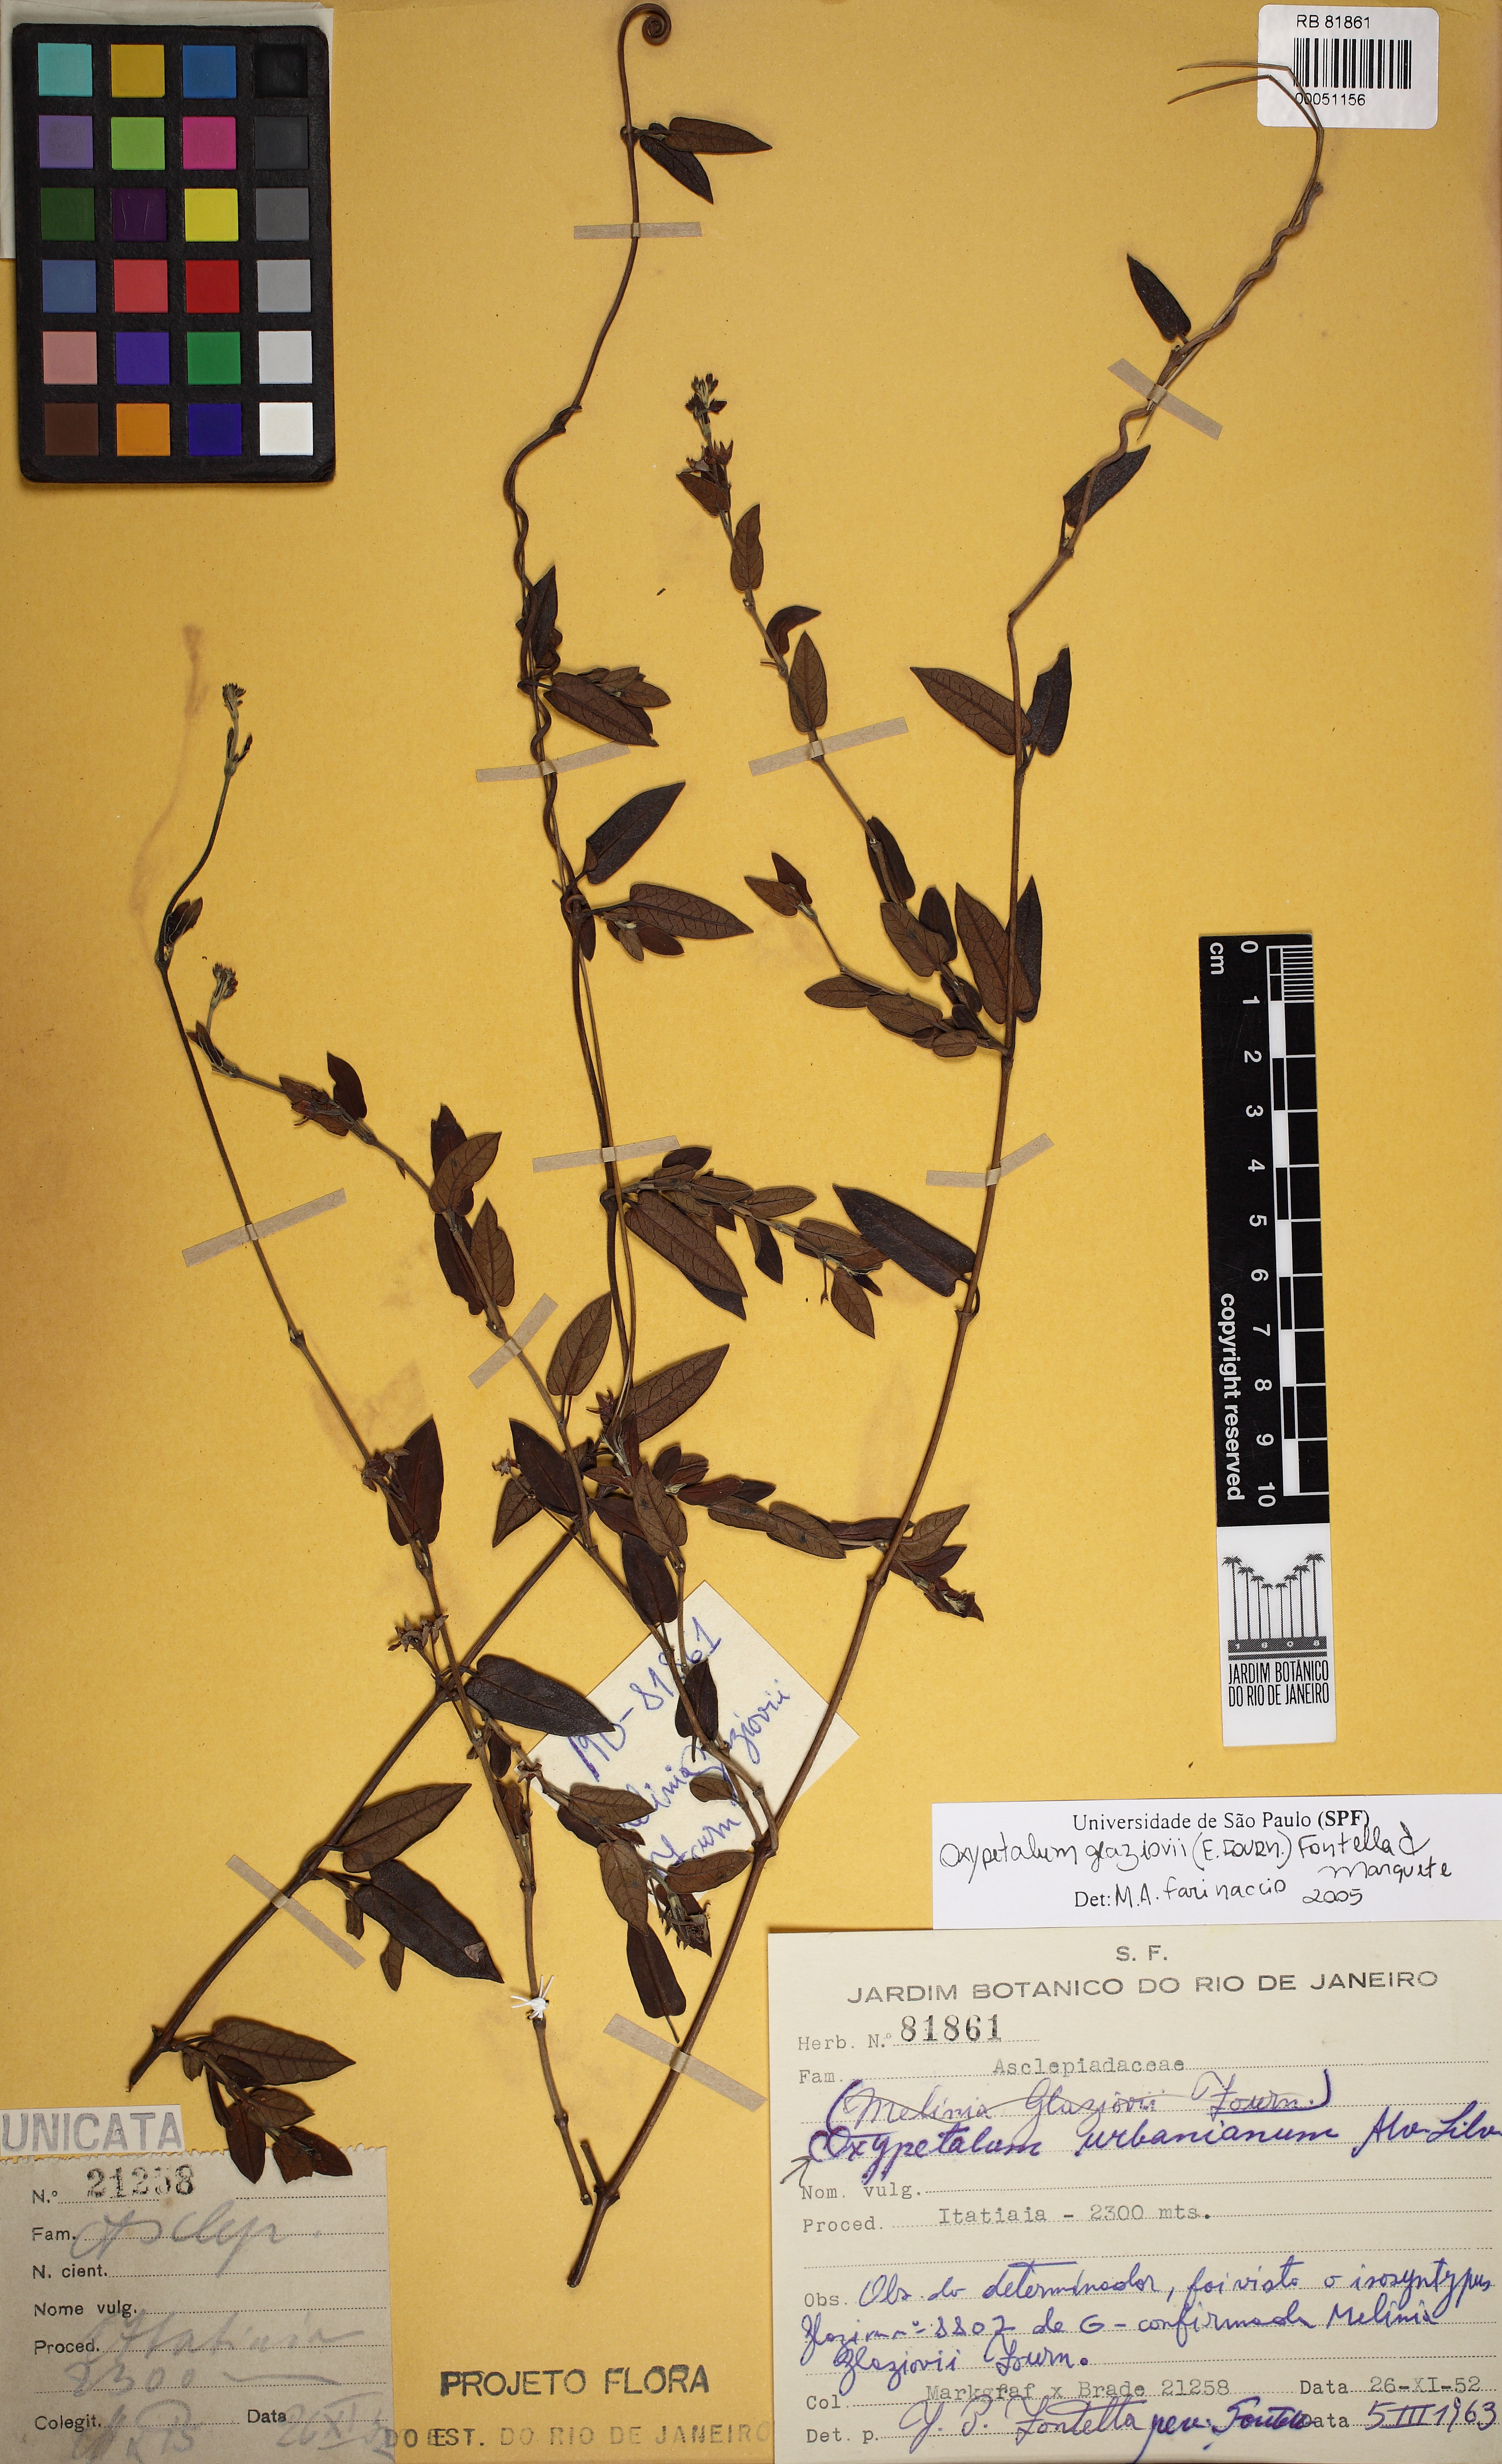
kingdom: Plantae
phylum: Tracheophyta
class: Magnoliopsida
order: Gentianales
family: Apocynaceae
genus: Oxypetalum
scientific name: Oxypetalum glaziovii
